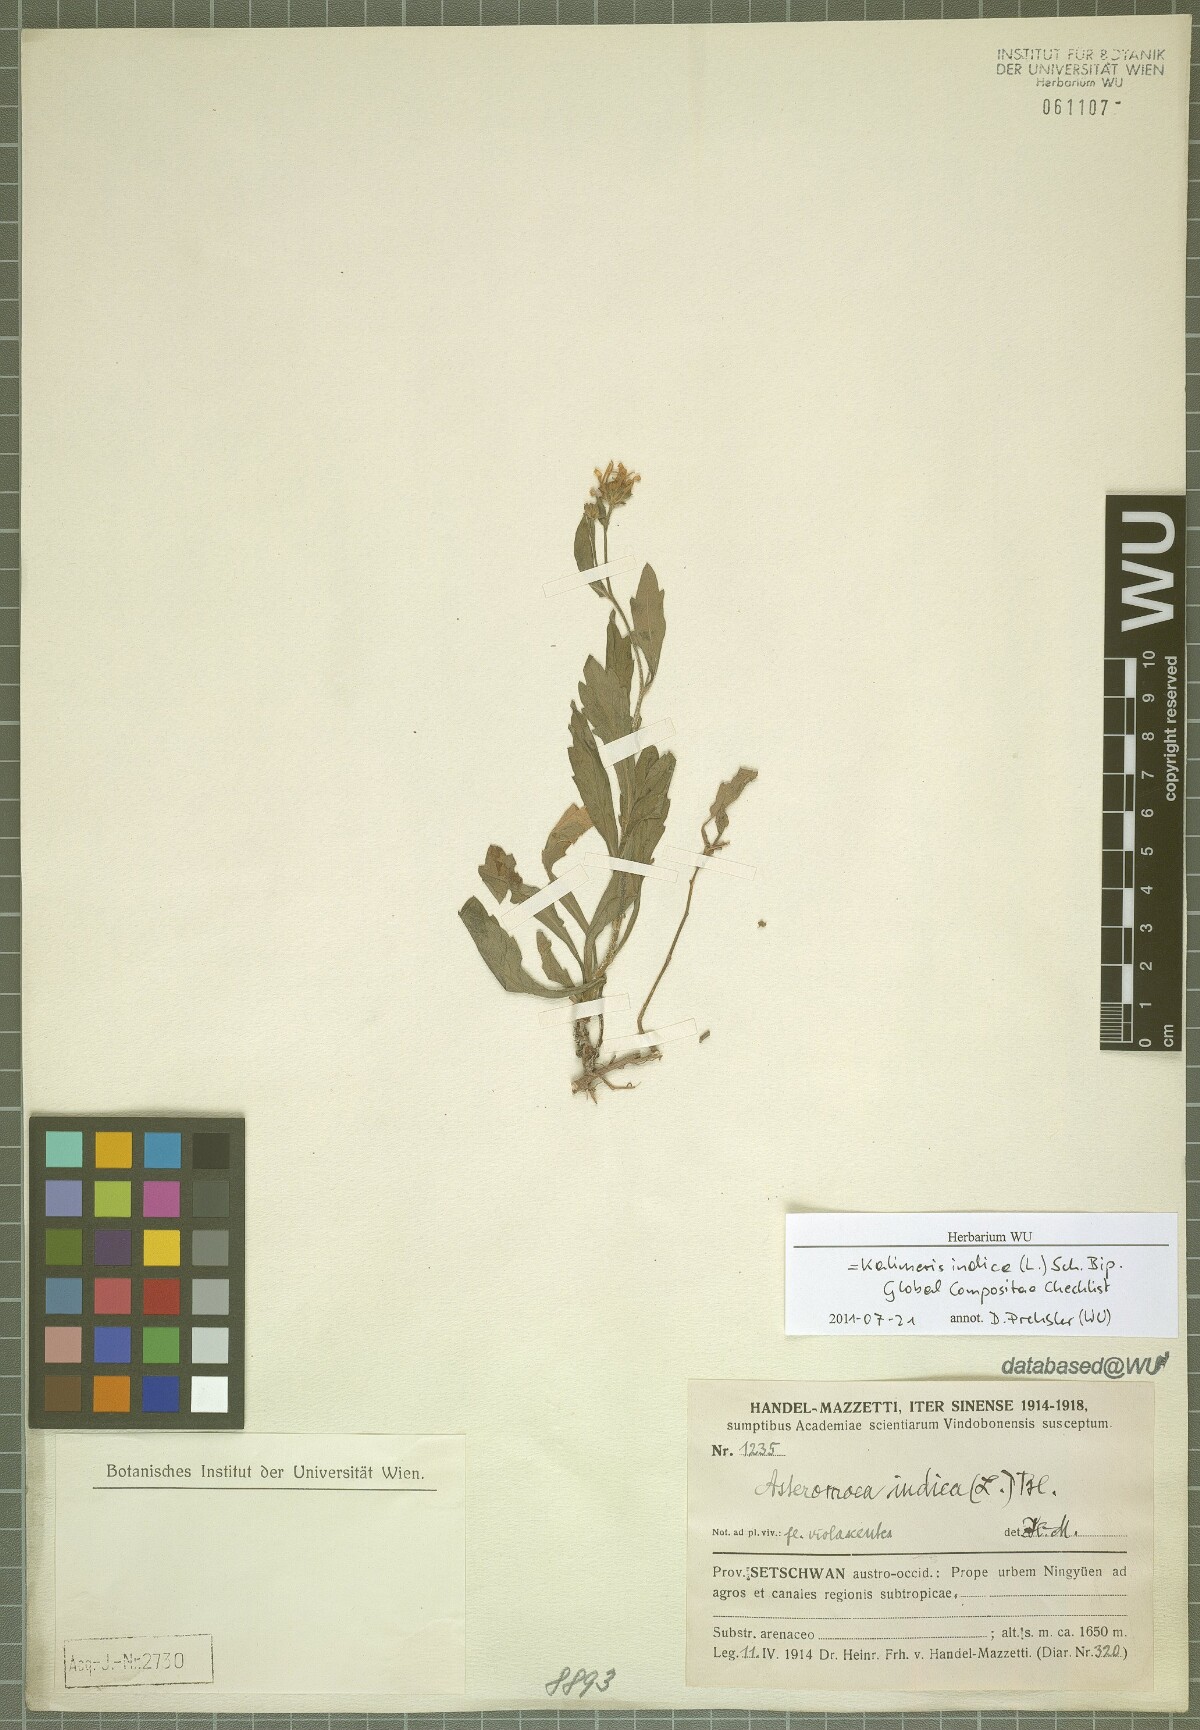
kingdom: Plantae
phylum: Tracheophyta
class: Magnoliopsida
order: Asterales
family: Asteraceae
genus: Kalimeris
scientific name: Kalimeris indica
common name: Indian aster
